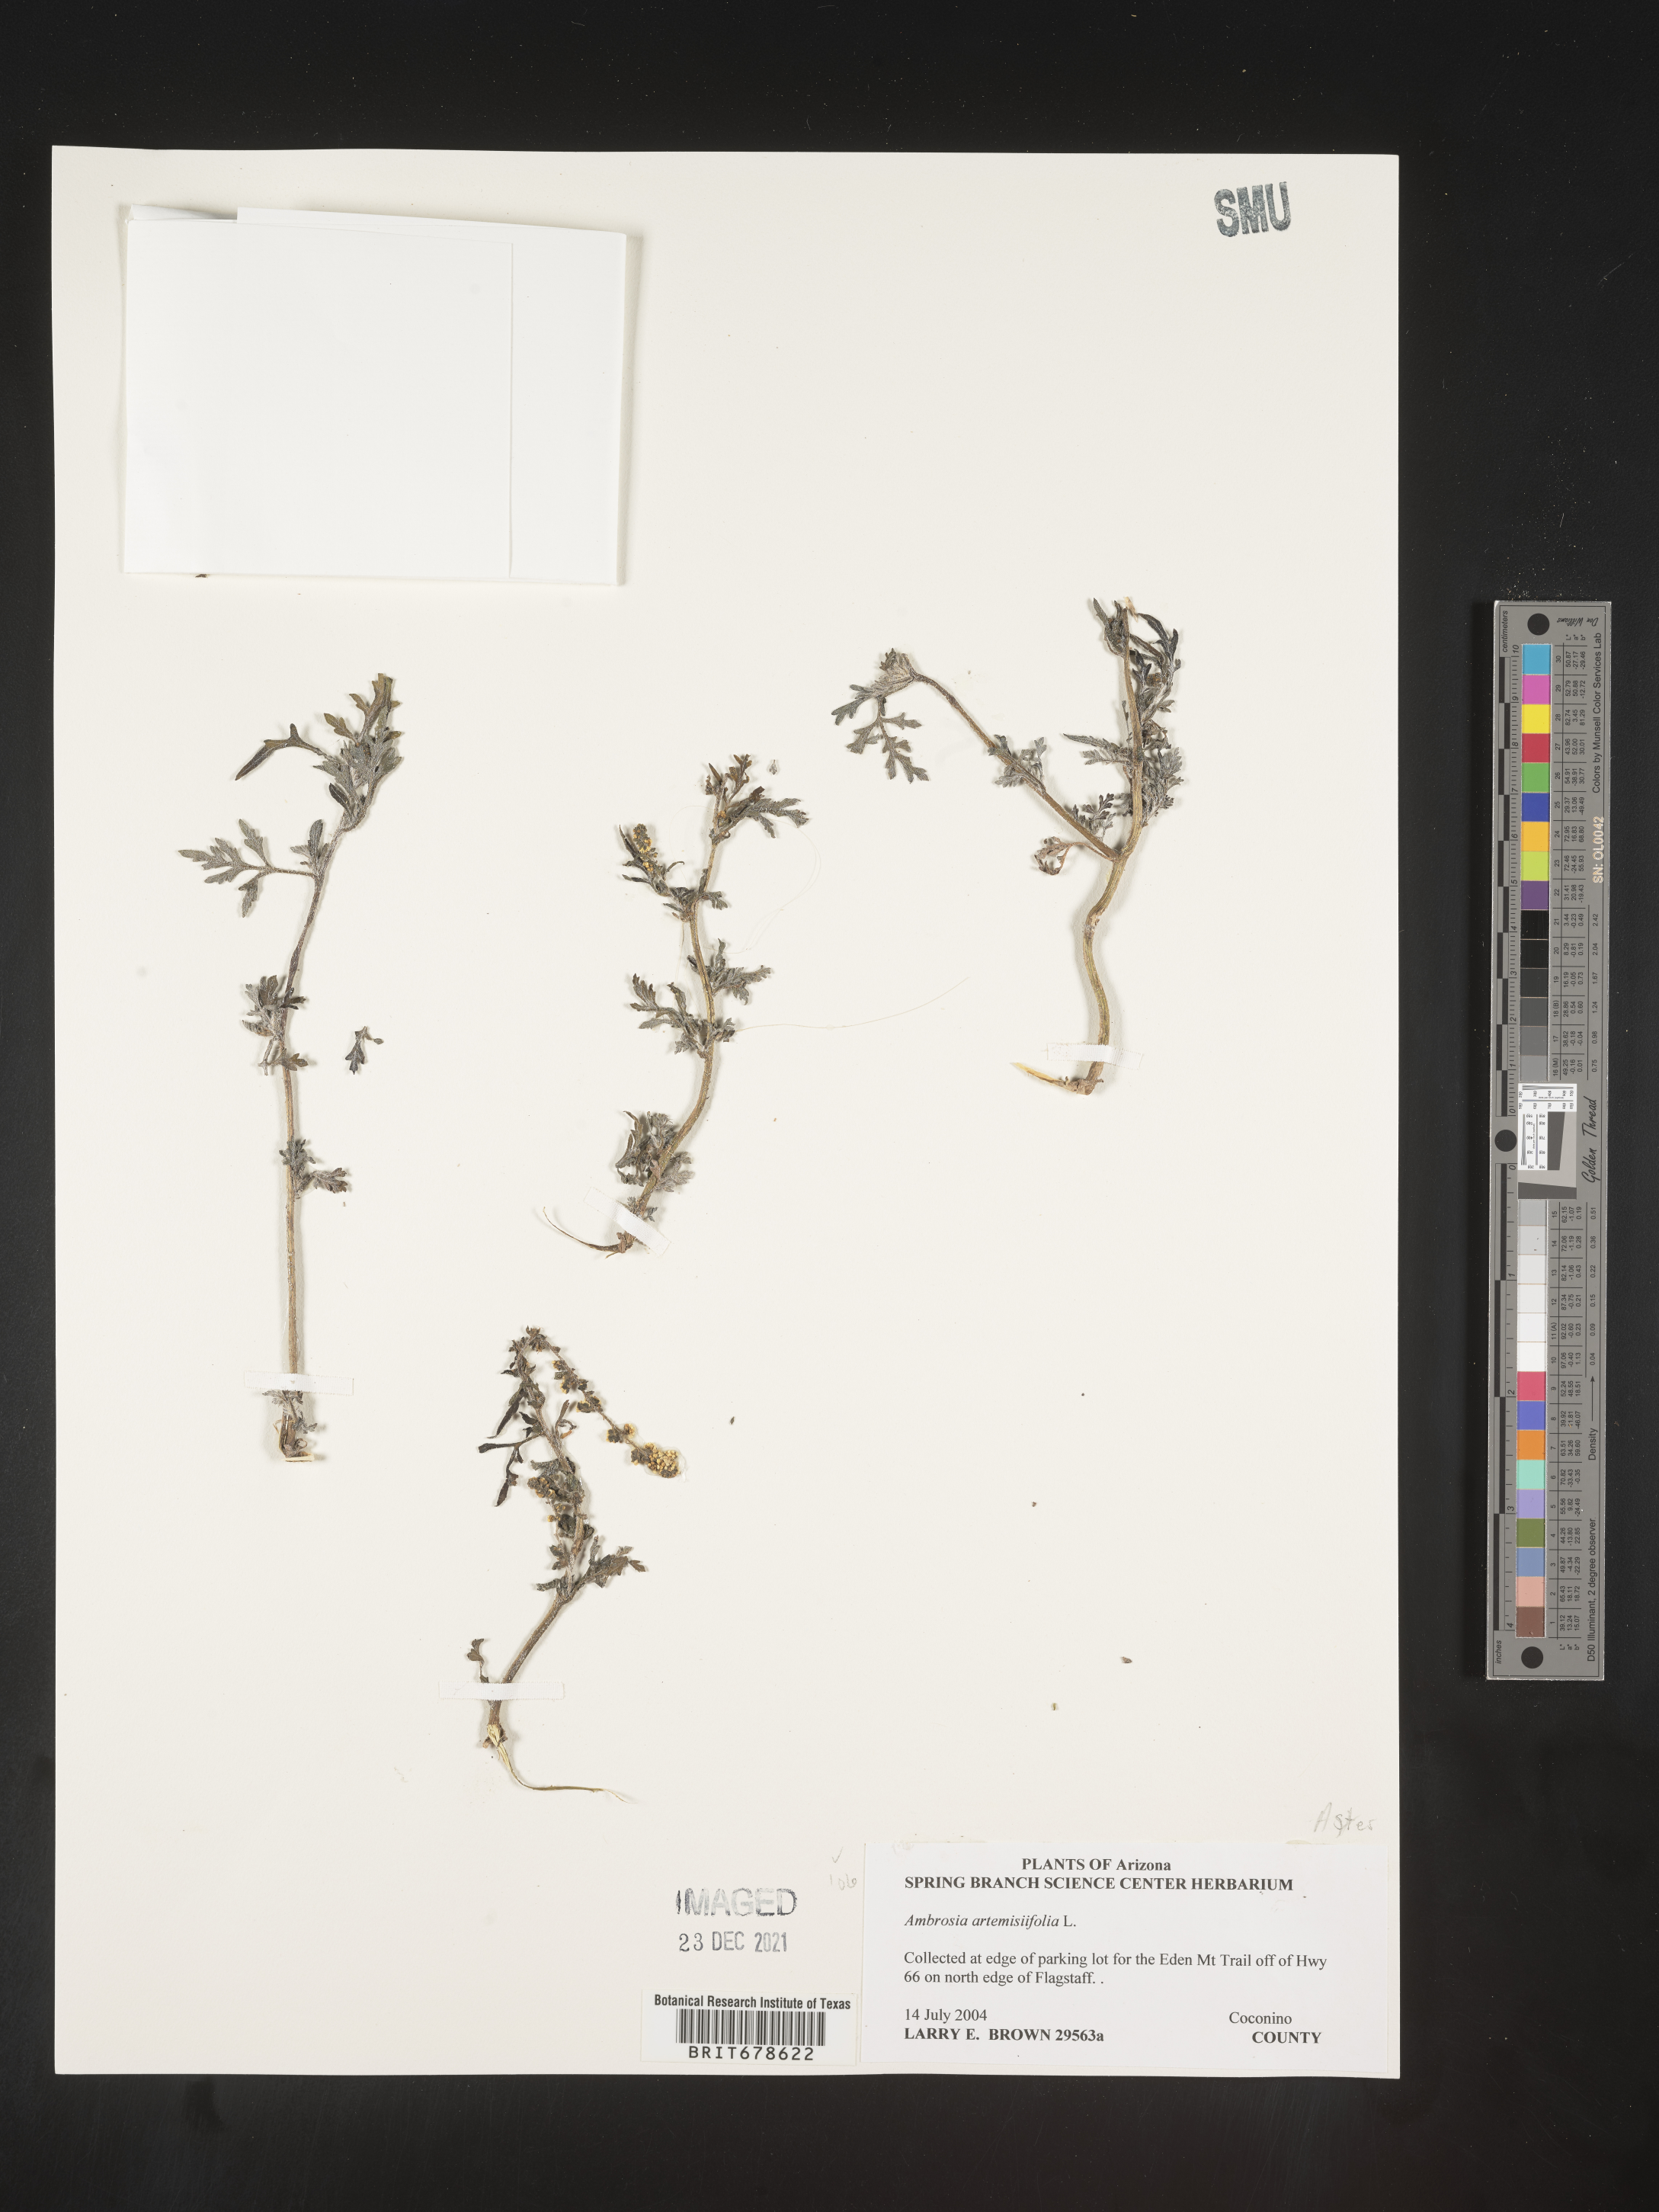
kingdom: Plantae
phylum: Tracheophyta
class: Magnoliopsida
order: Asterales
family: Asteraceae
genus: Ambrosia
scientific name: Ambrosia polystachya
